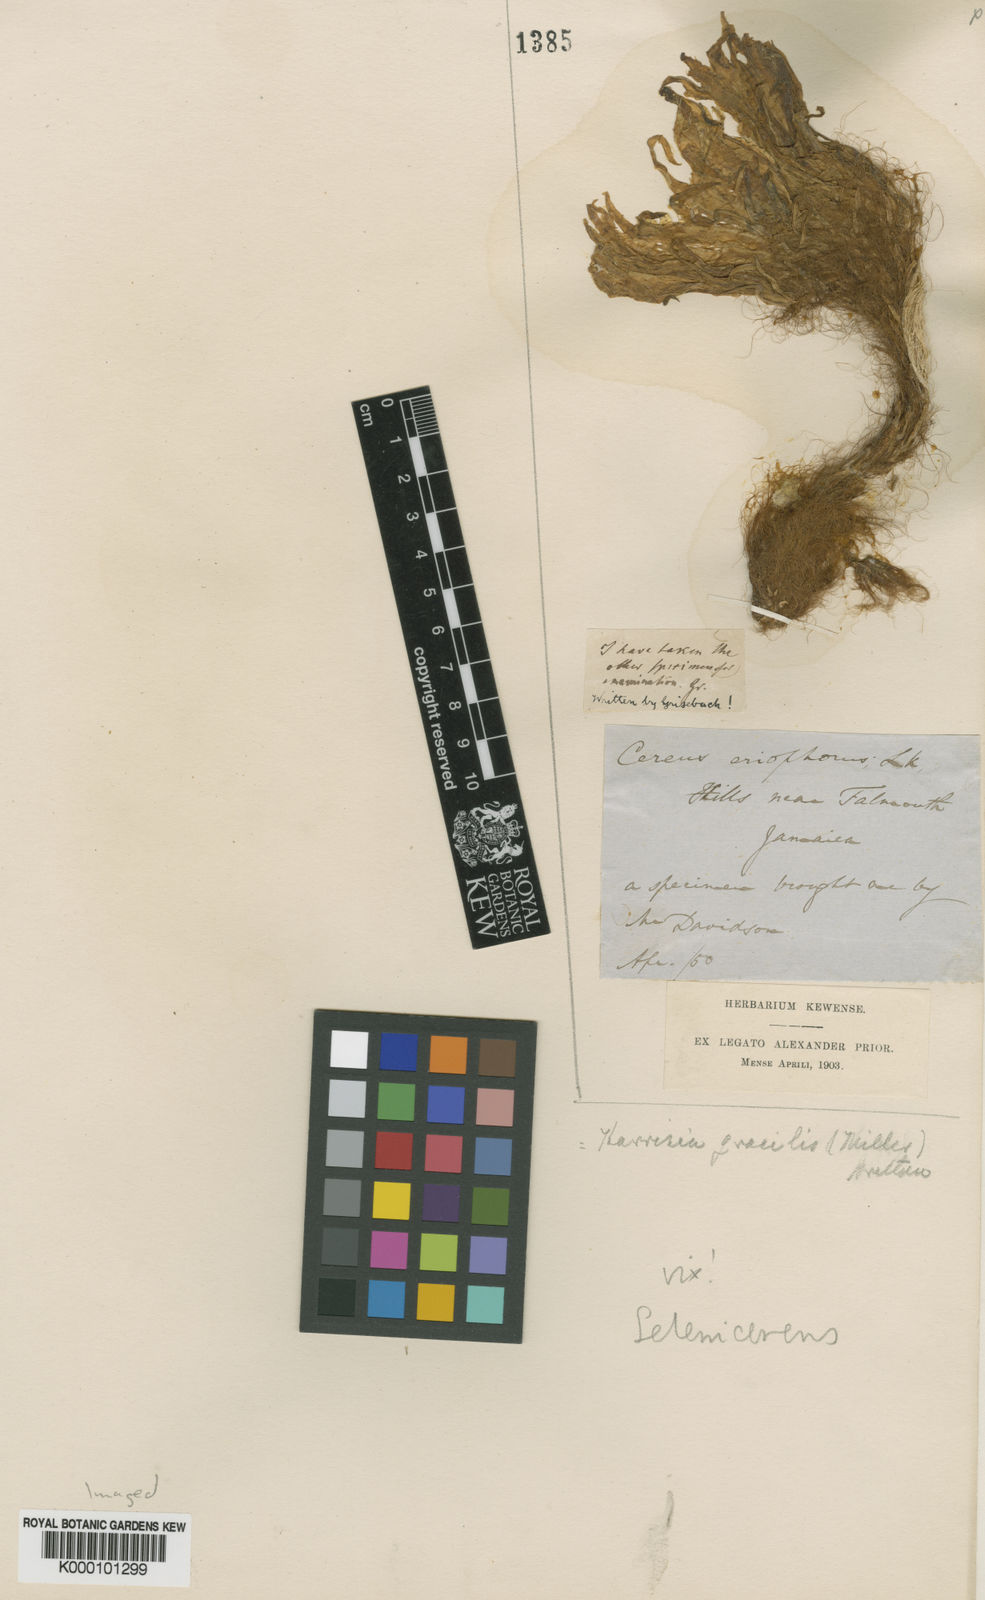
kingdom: Plantae
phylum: Tracheophyta
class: Magnoliopsida
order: Caryophyllales
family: Cactaceae
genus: Selenicereus
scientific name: Selenicereus grandiflorus
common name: Queen of the night
